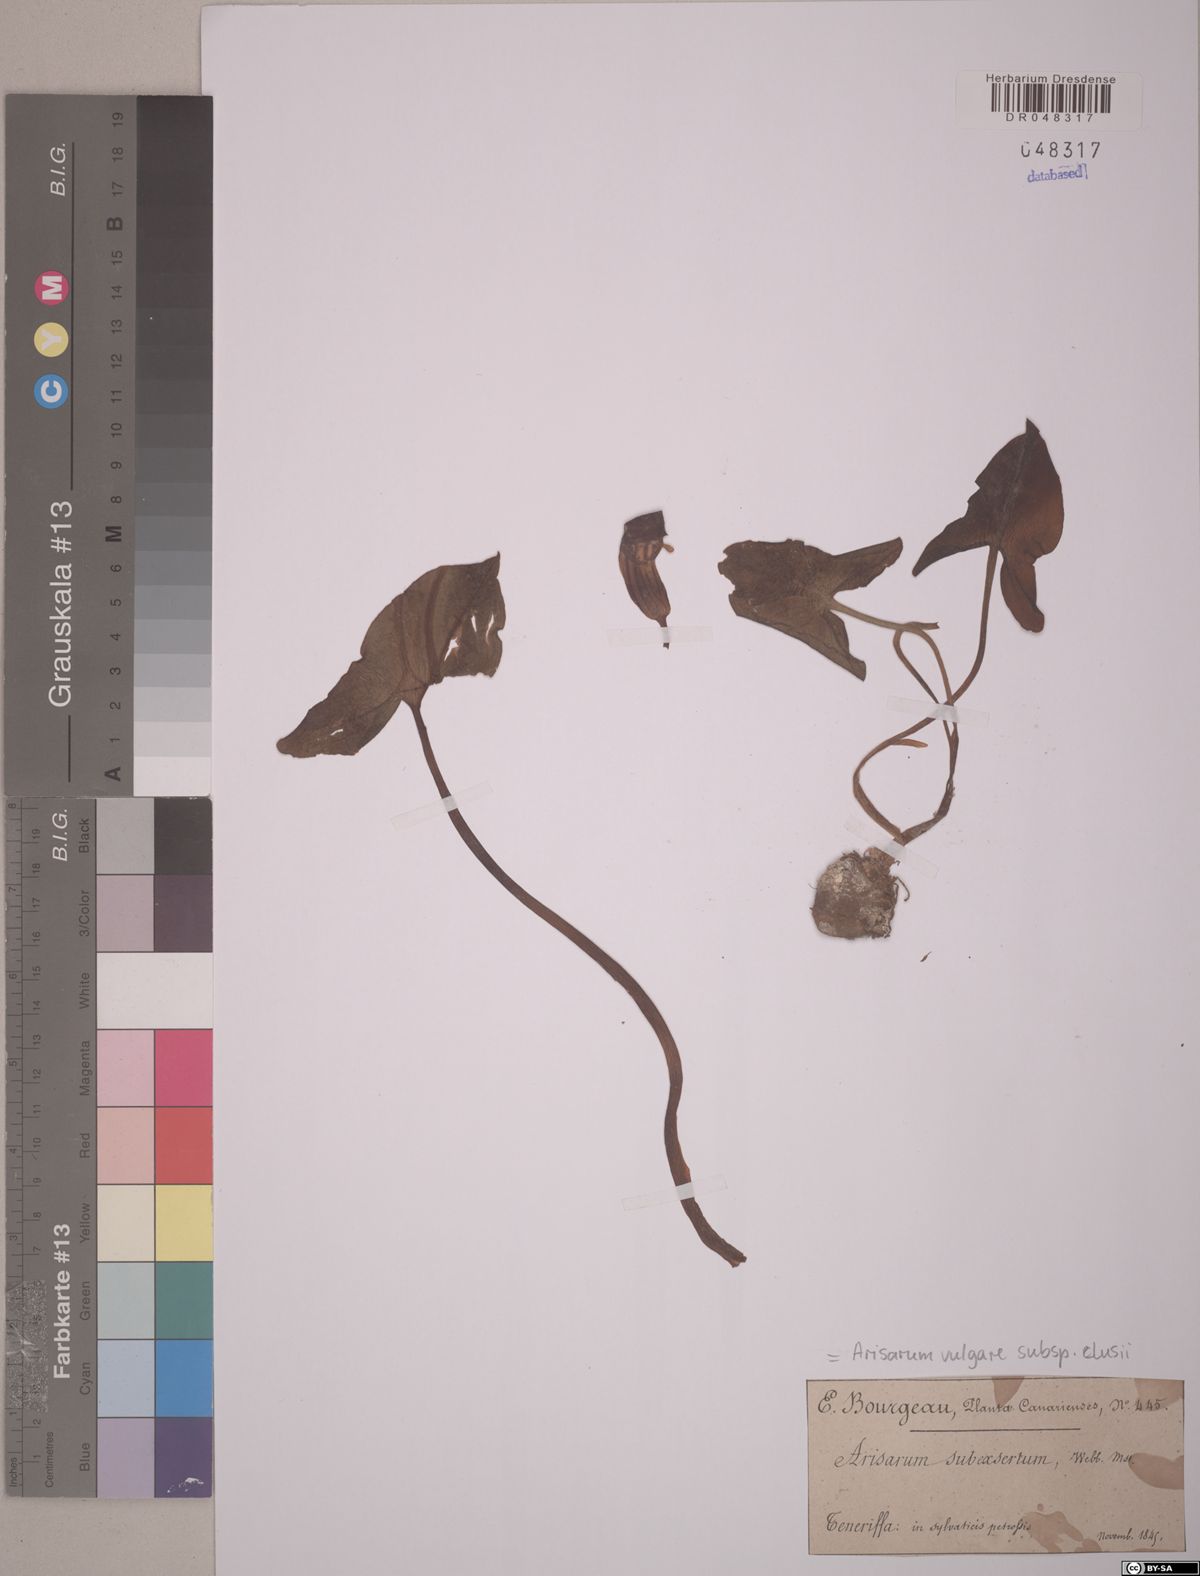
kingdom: Plantae
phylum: Tracheophyta
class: Liliopsida
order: Alismatales
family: Araceae
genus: Arisarum
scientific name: Arisarum simorrhinum
